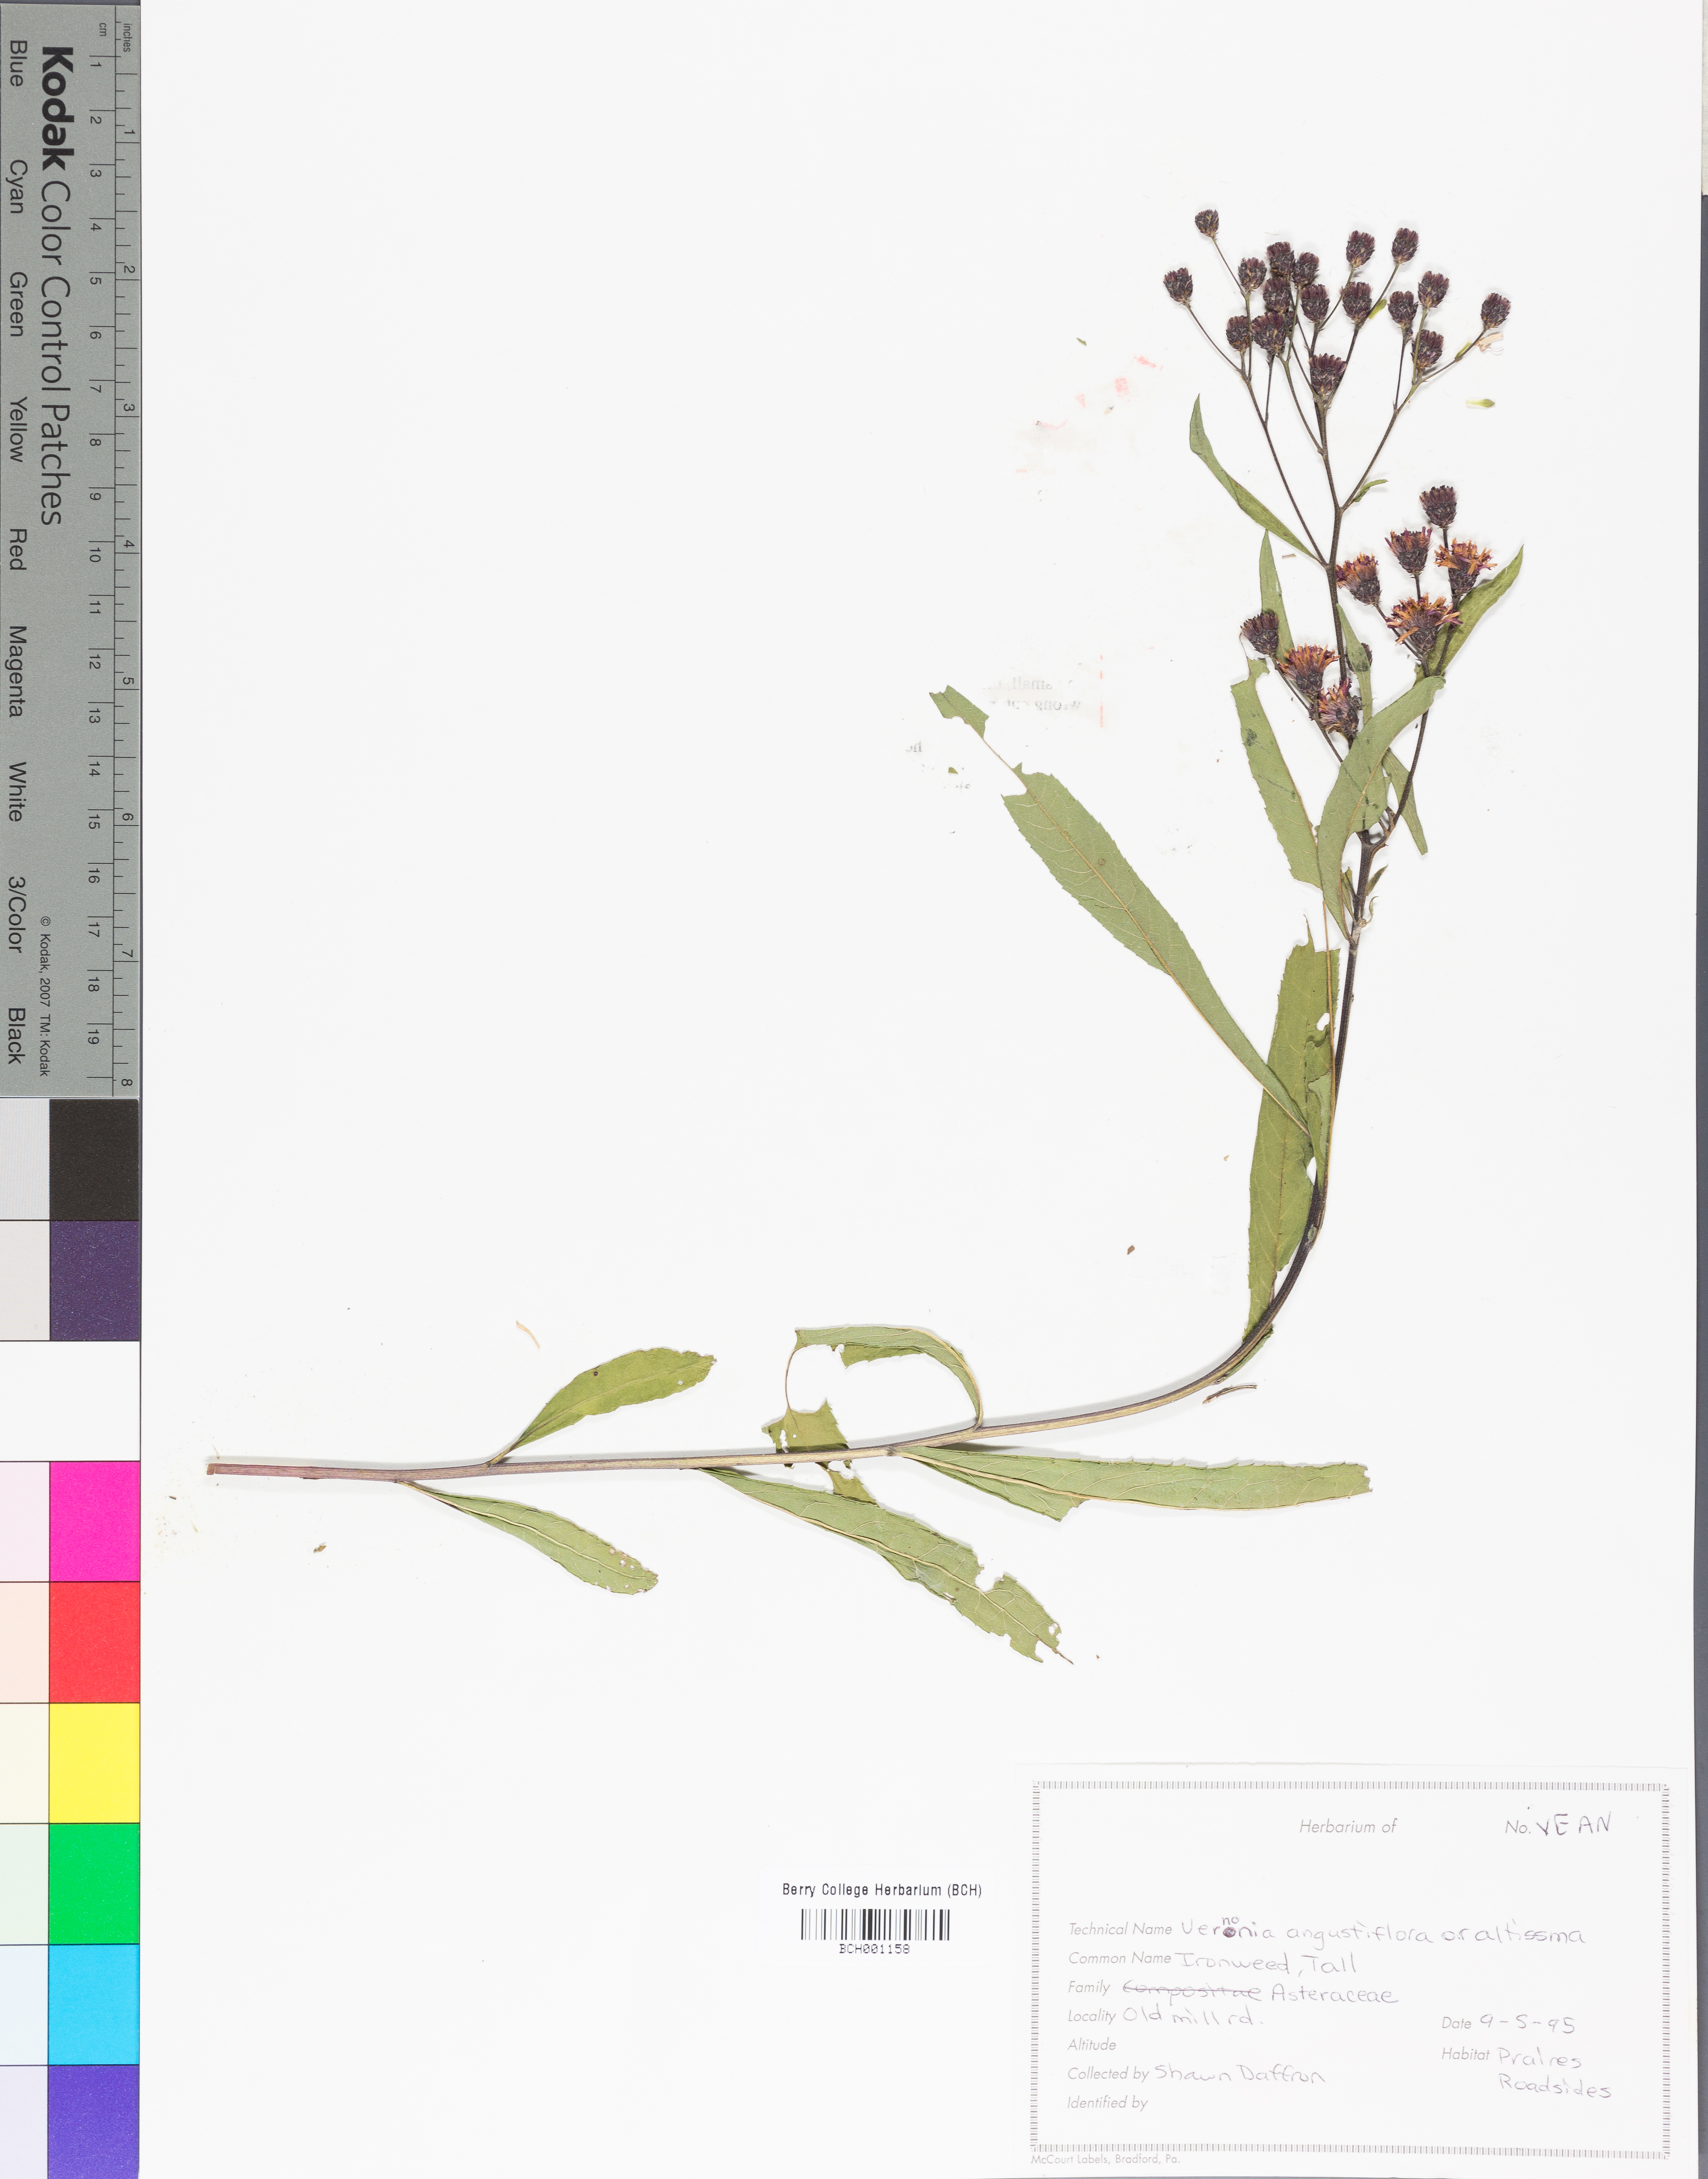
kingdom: Plantae
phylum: Tracheophyta
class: Magnoliopsida
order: Asterales
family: Asteraceae
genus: Vernonia
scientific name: Vernonia angustifolia
